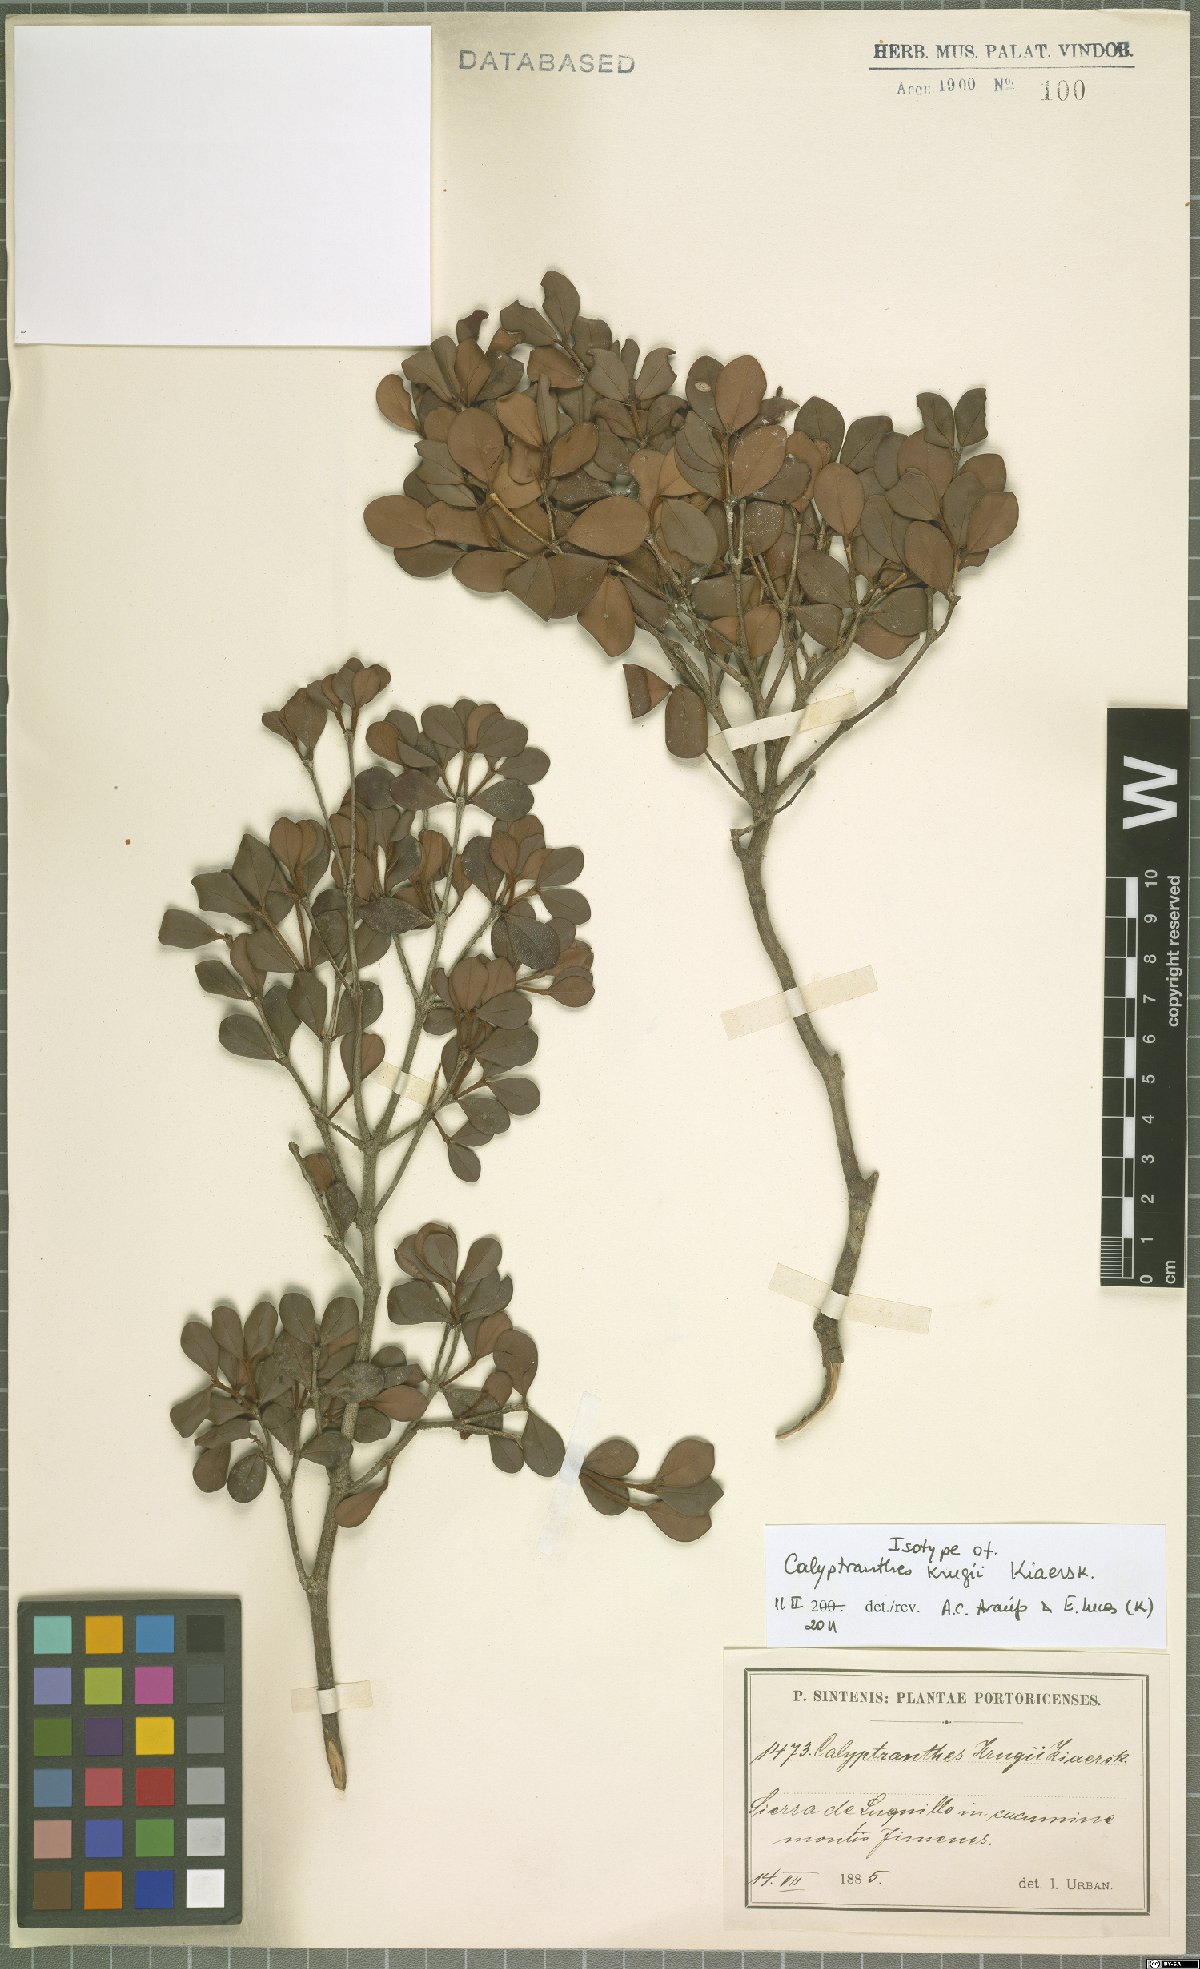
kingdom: Plantae
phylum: Tracheophyta
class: Magnoliopsida
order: Myrtales
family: Myrtaceae
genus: Myrcia
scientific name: Myrcia krugii
